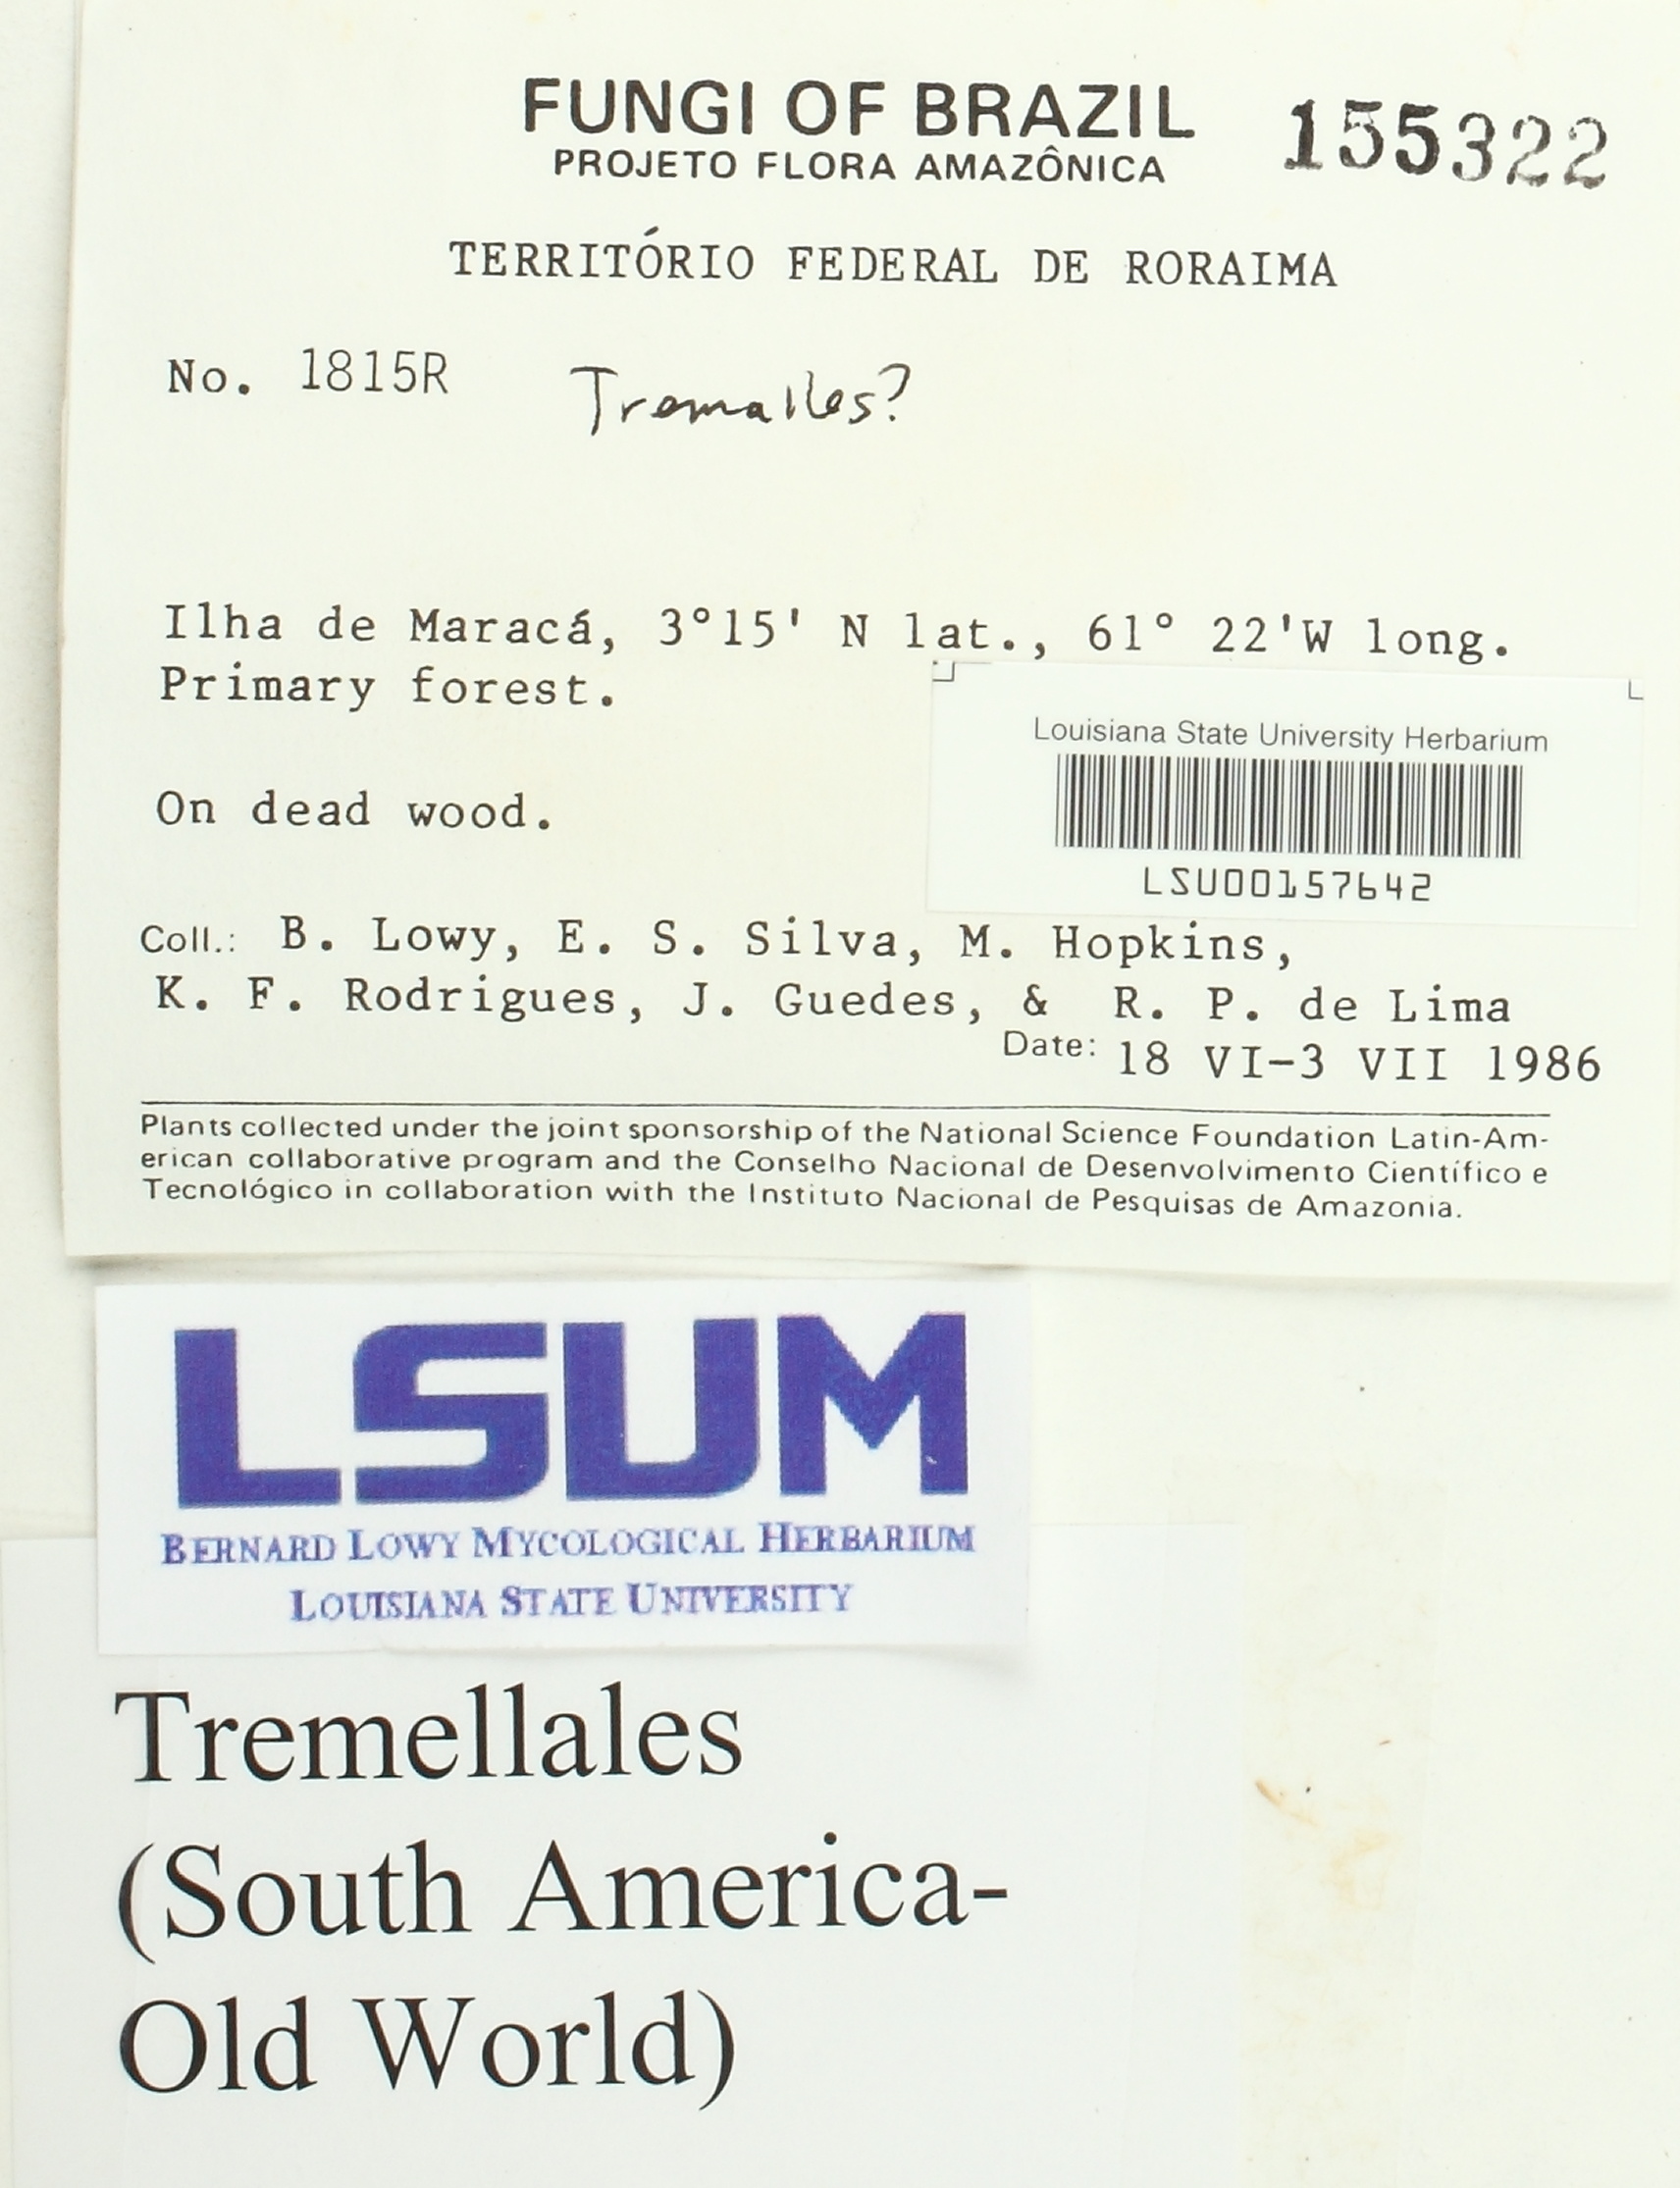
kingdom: Fungi
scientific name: Fungi
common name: Fungi
